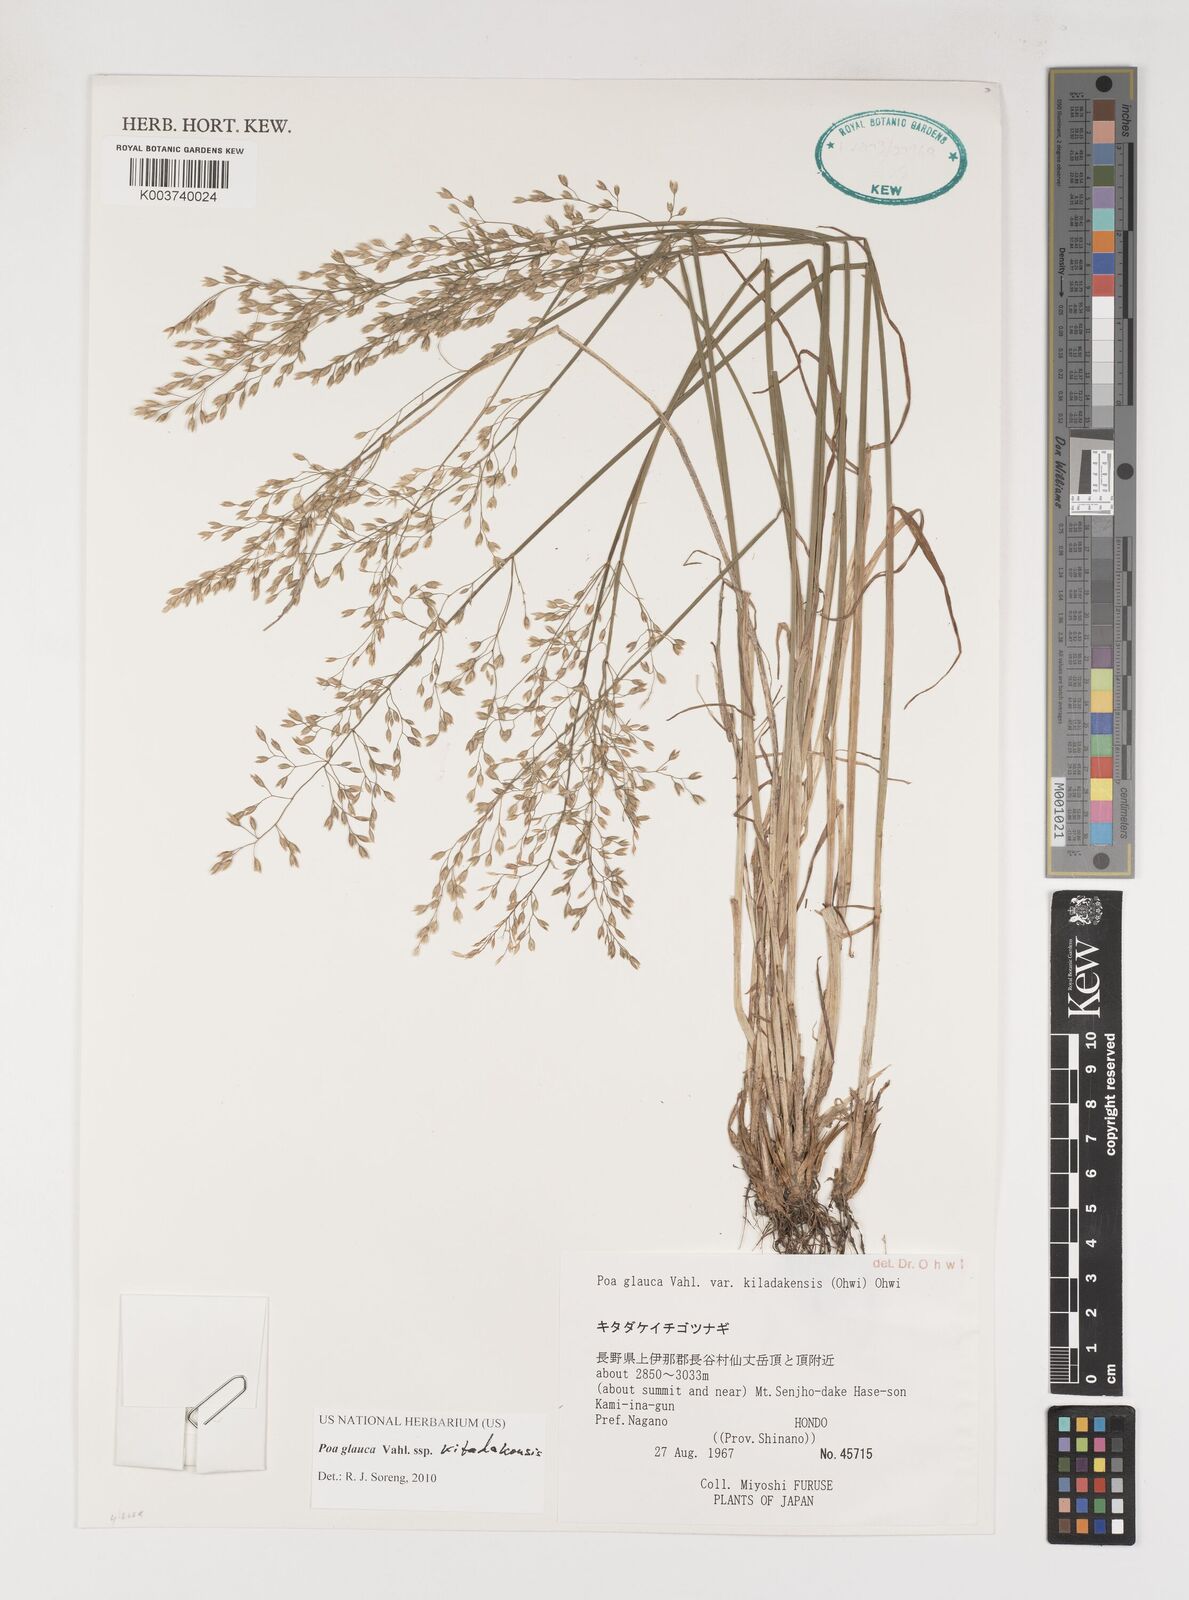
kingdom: Plantae
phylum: Tracheophyta
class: Liliopsida
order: Poales
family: Poaceae
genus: Poa
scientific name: Poa glauca
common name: Glaucous bluegrass
